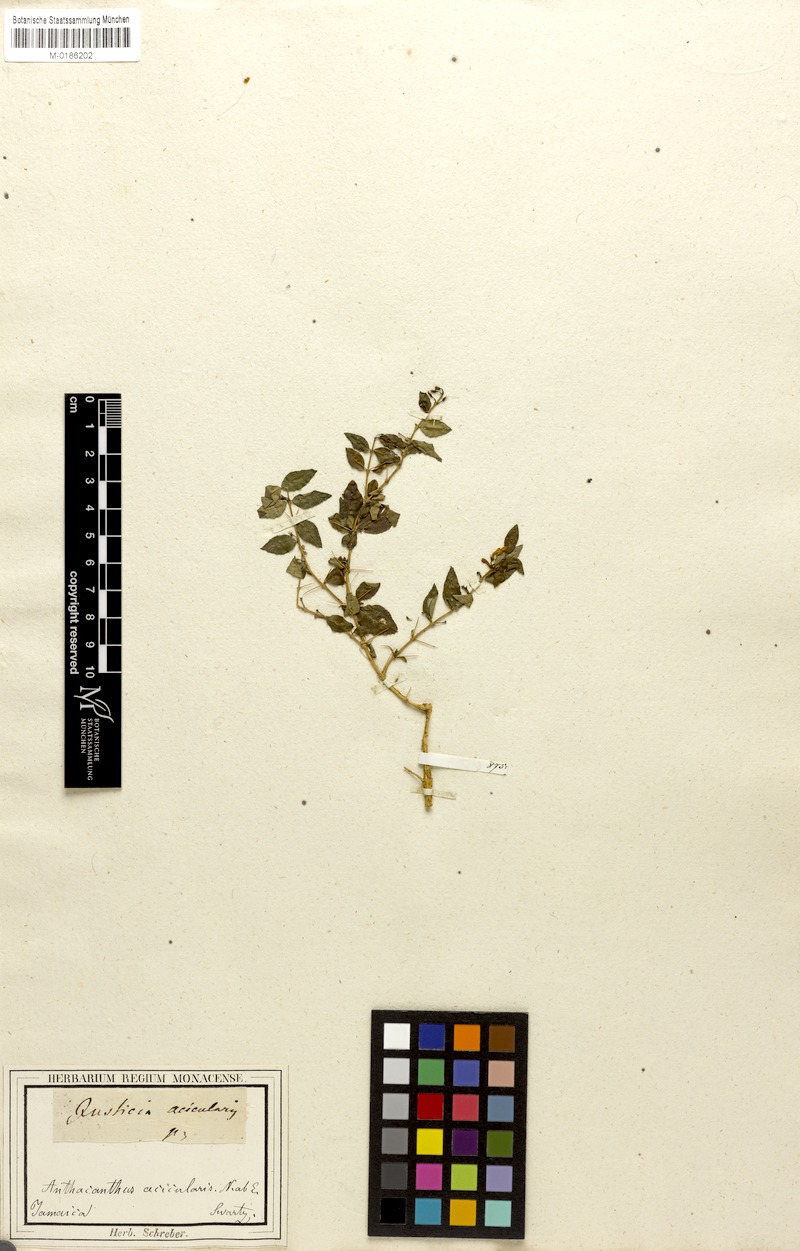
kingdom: Plantae
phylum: Tracheophyta
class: Magnoliopsida
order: Lamiales
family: Acanthaceae
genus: Oplonia
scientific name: Oplonia acicularis
